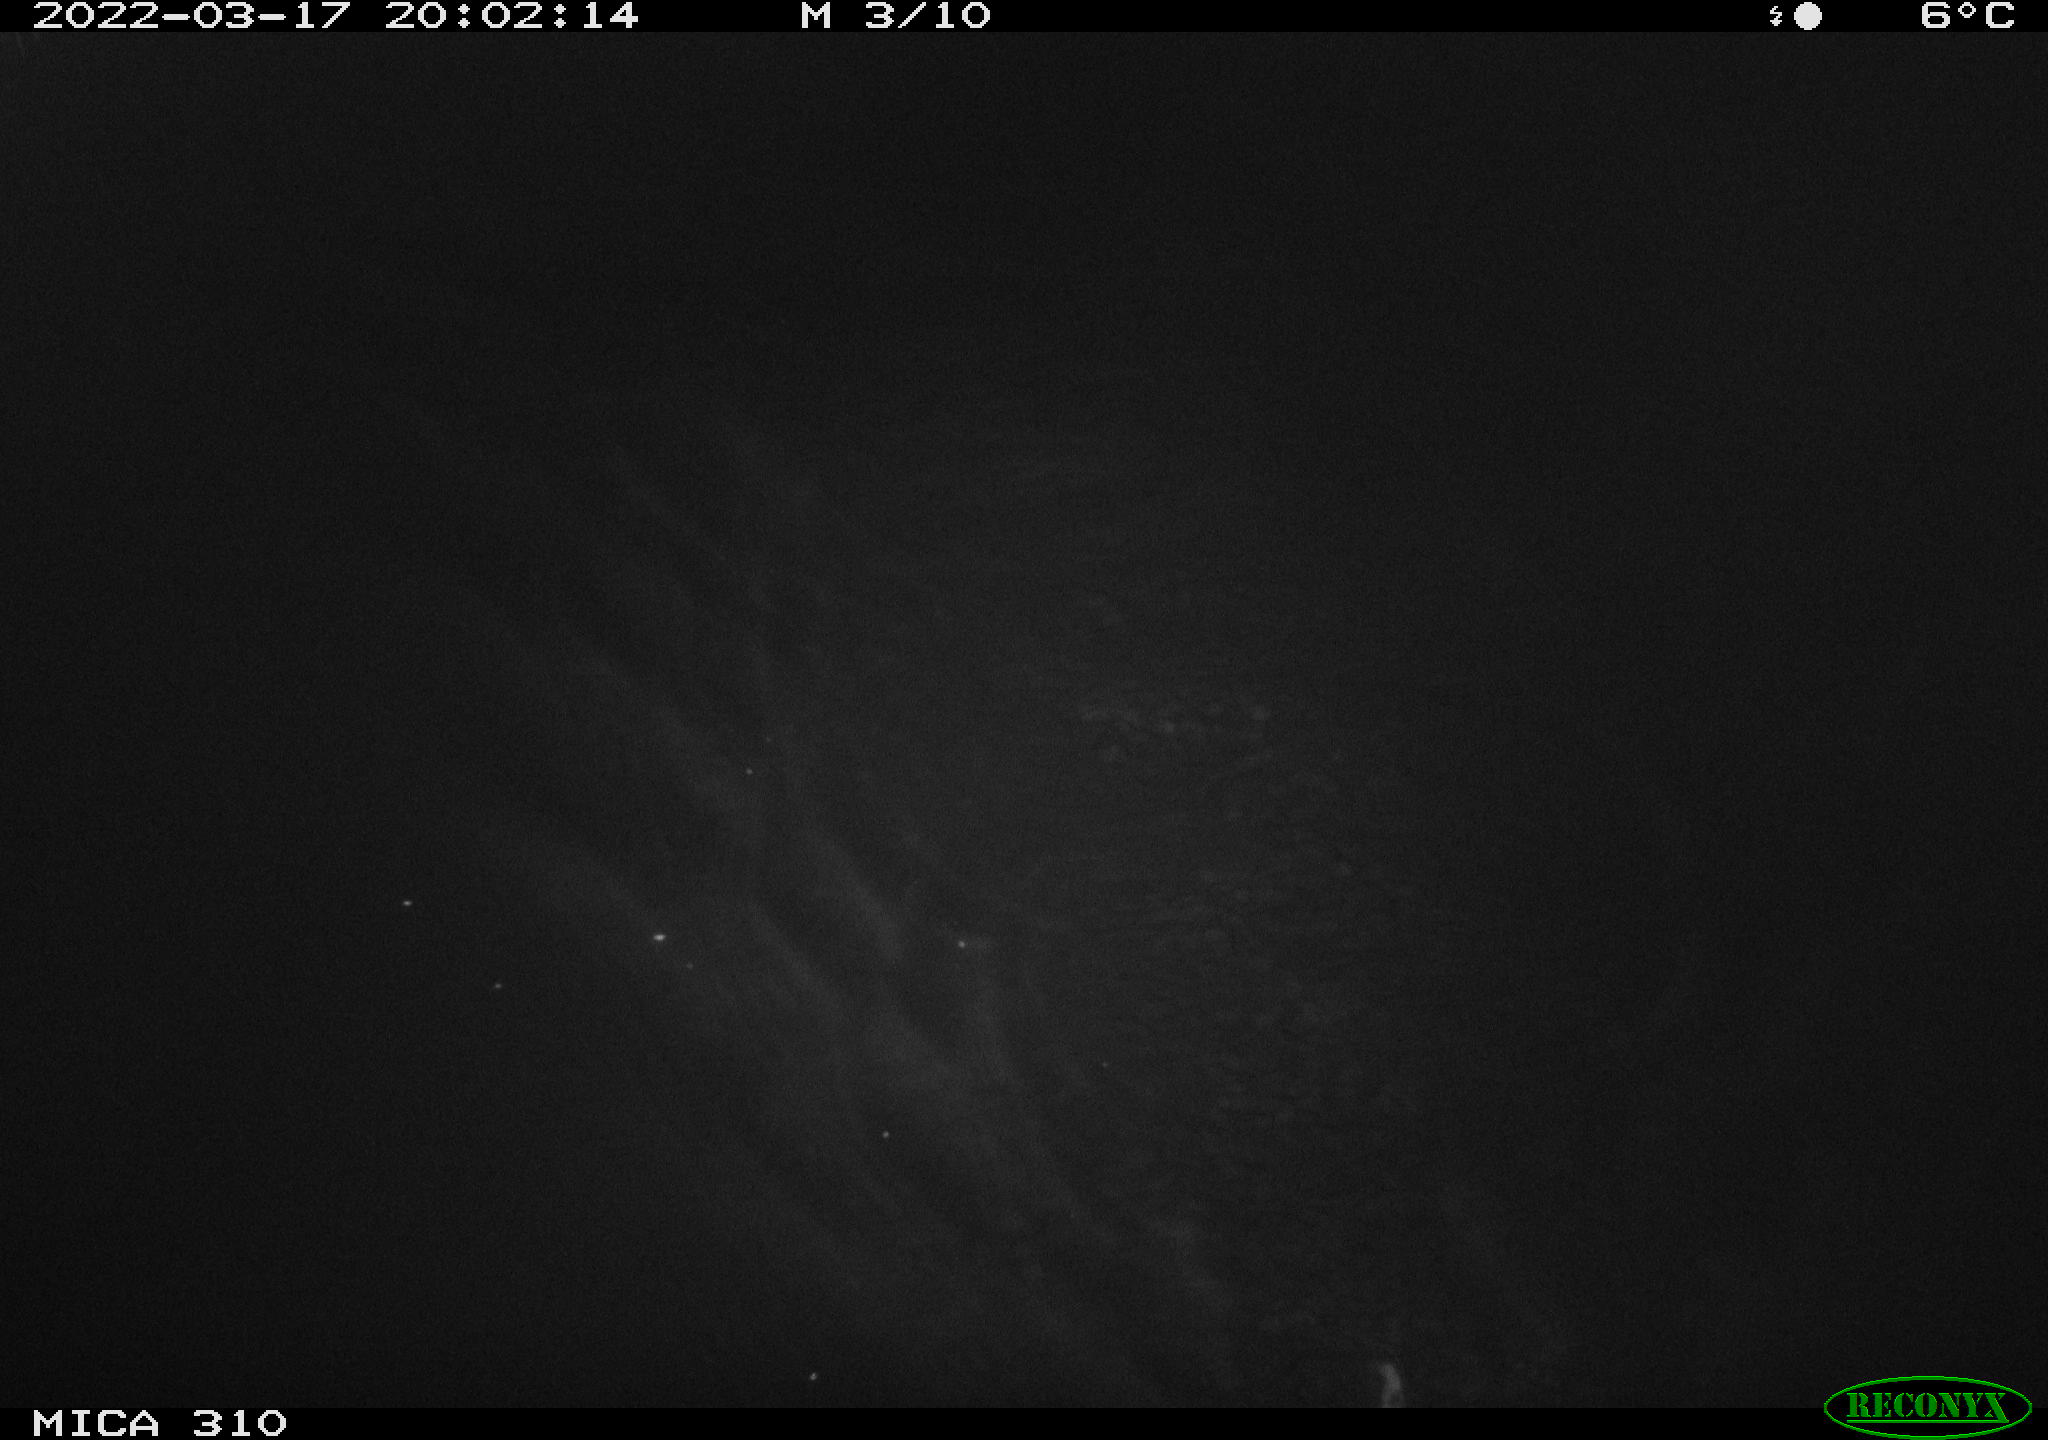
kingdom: Animalia
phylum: Chordata
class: Mammalia
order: Rodentia
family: Cricetidae
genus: Ondatra
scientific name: Ondatra zibethicus
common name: Muskrat
